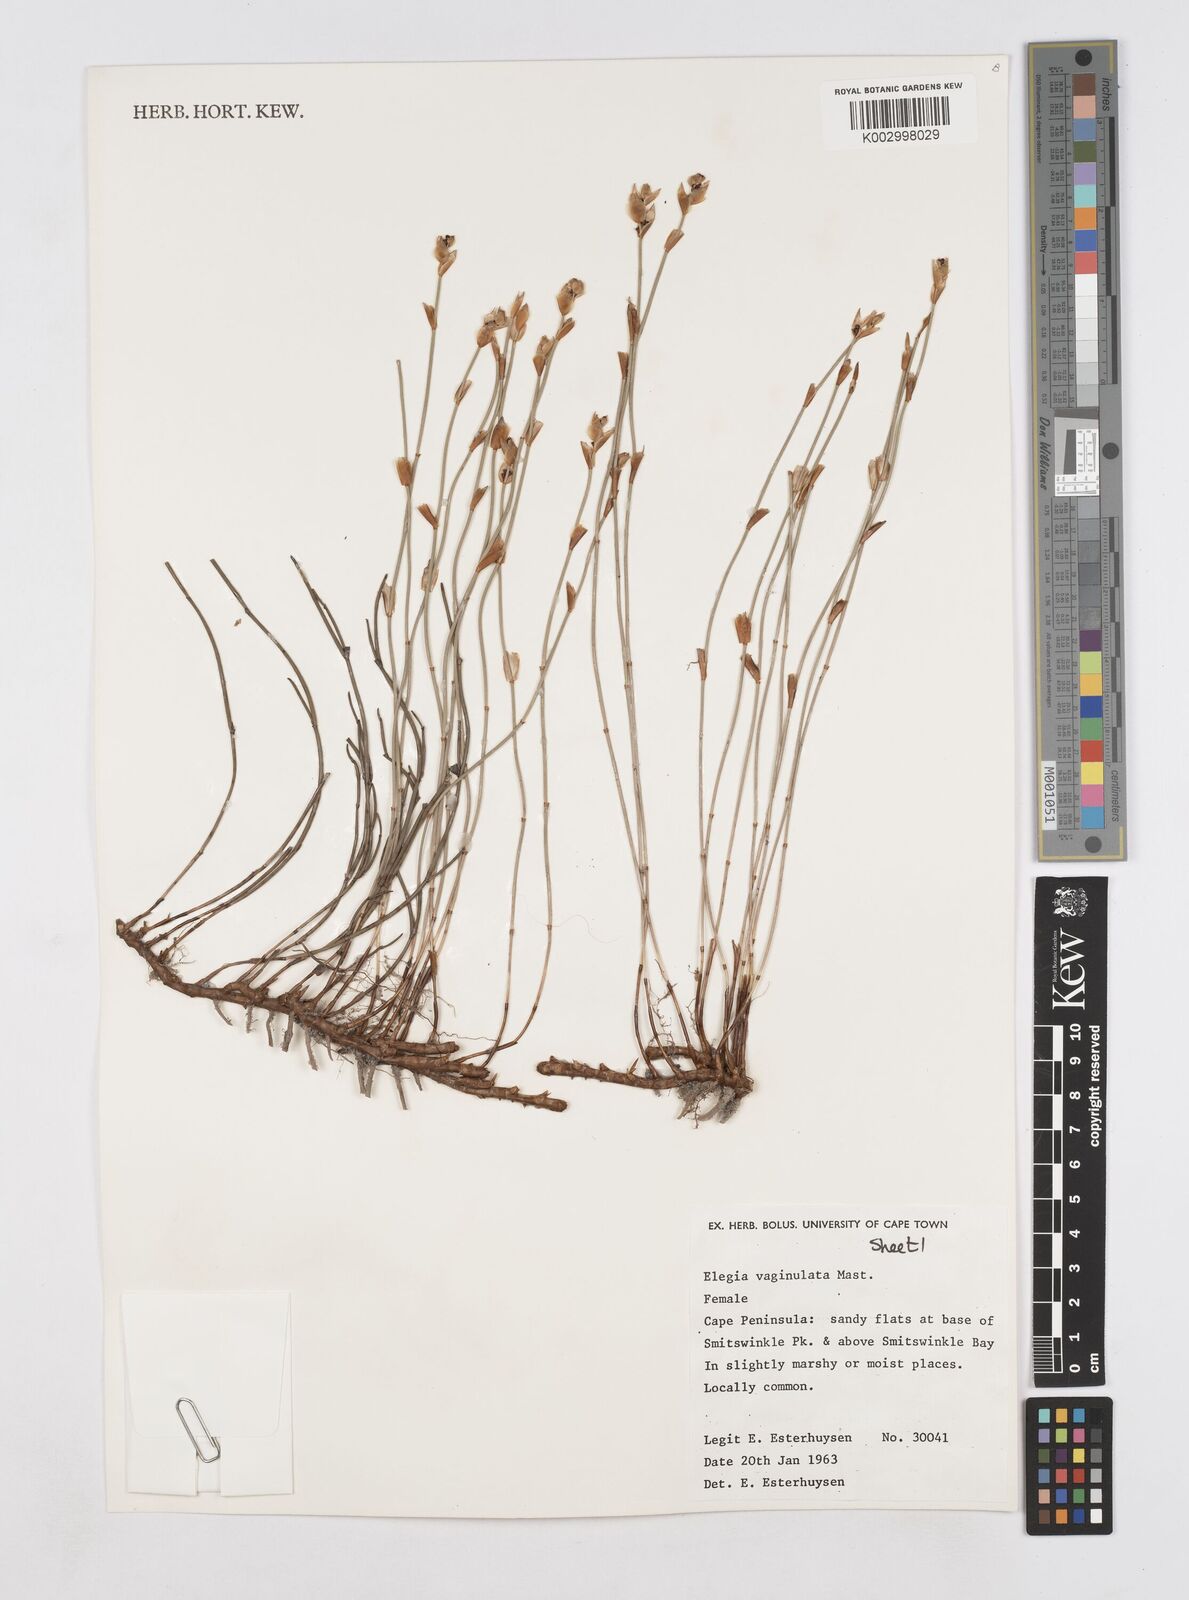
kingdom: Plantae
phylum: Tracheophyta
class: Liliopsida
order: Poales
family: Restionaceae
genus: Elegia
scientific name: Elegia vaginulata
